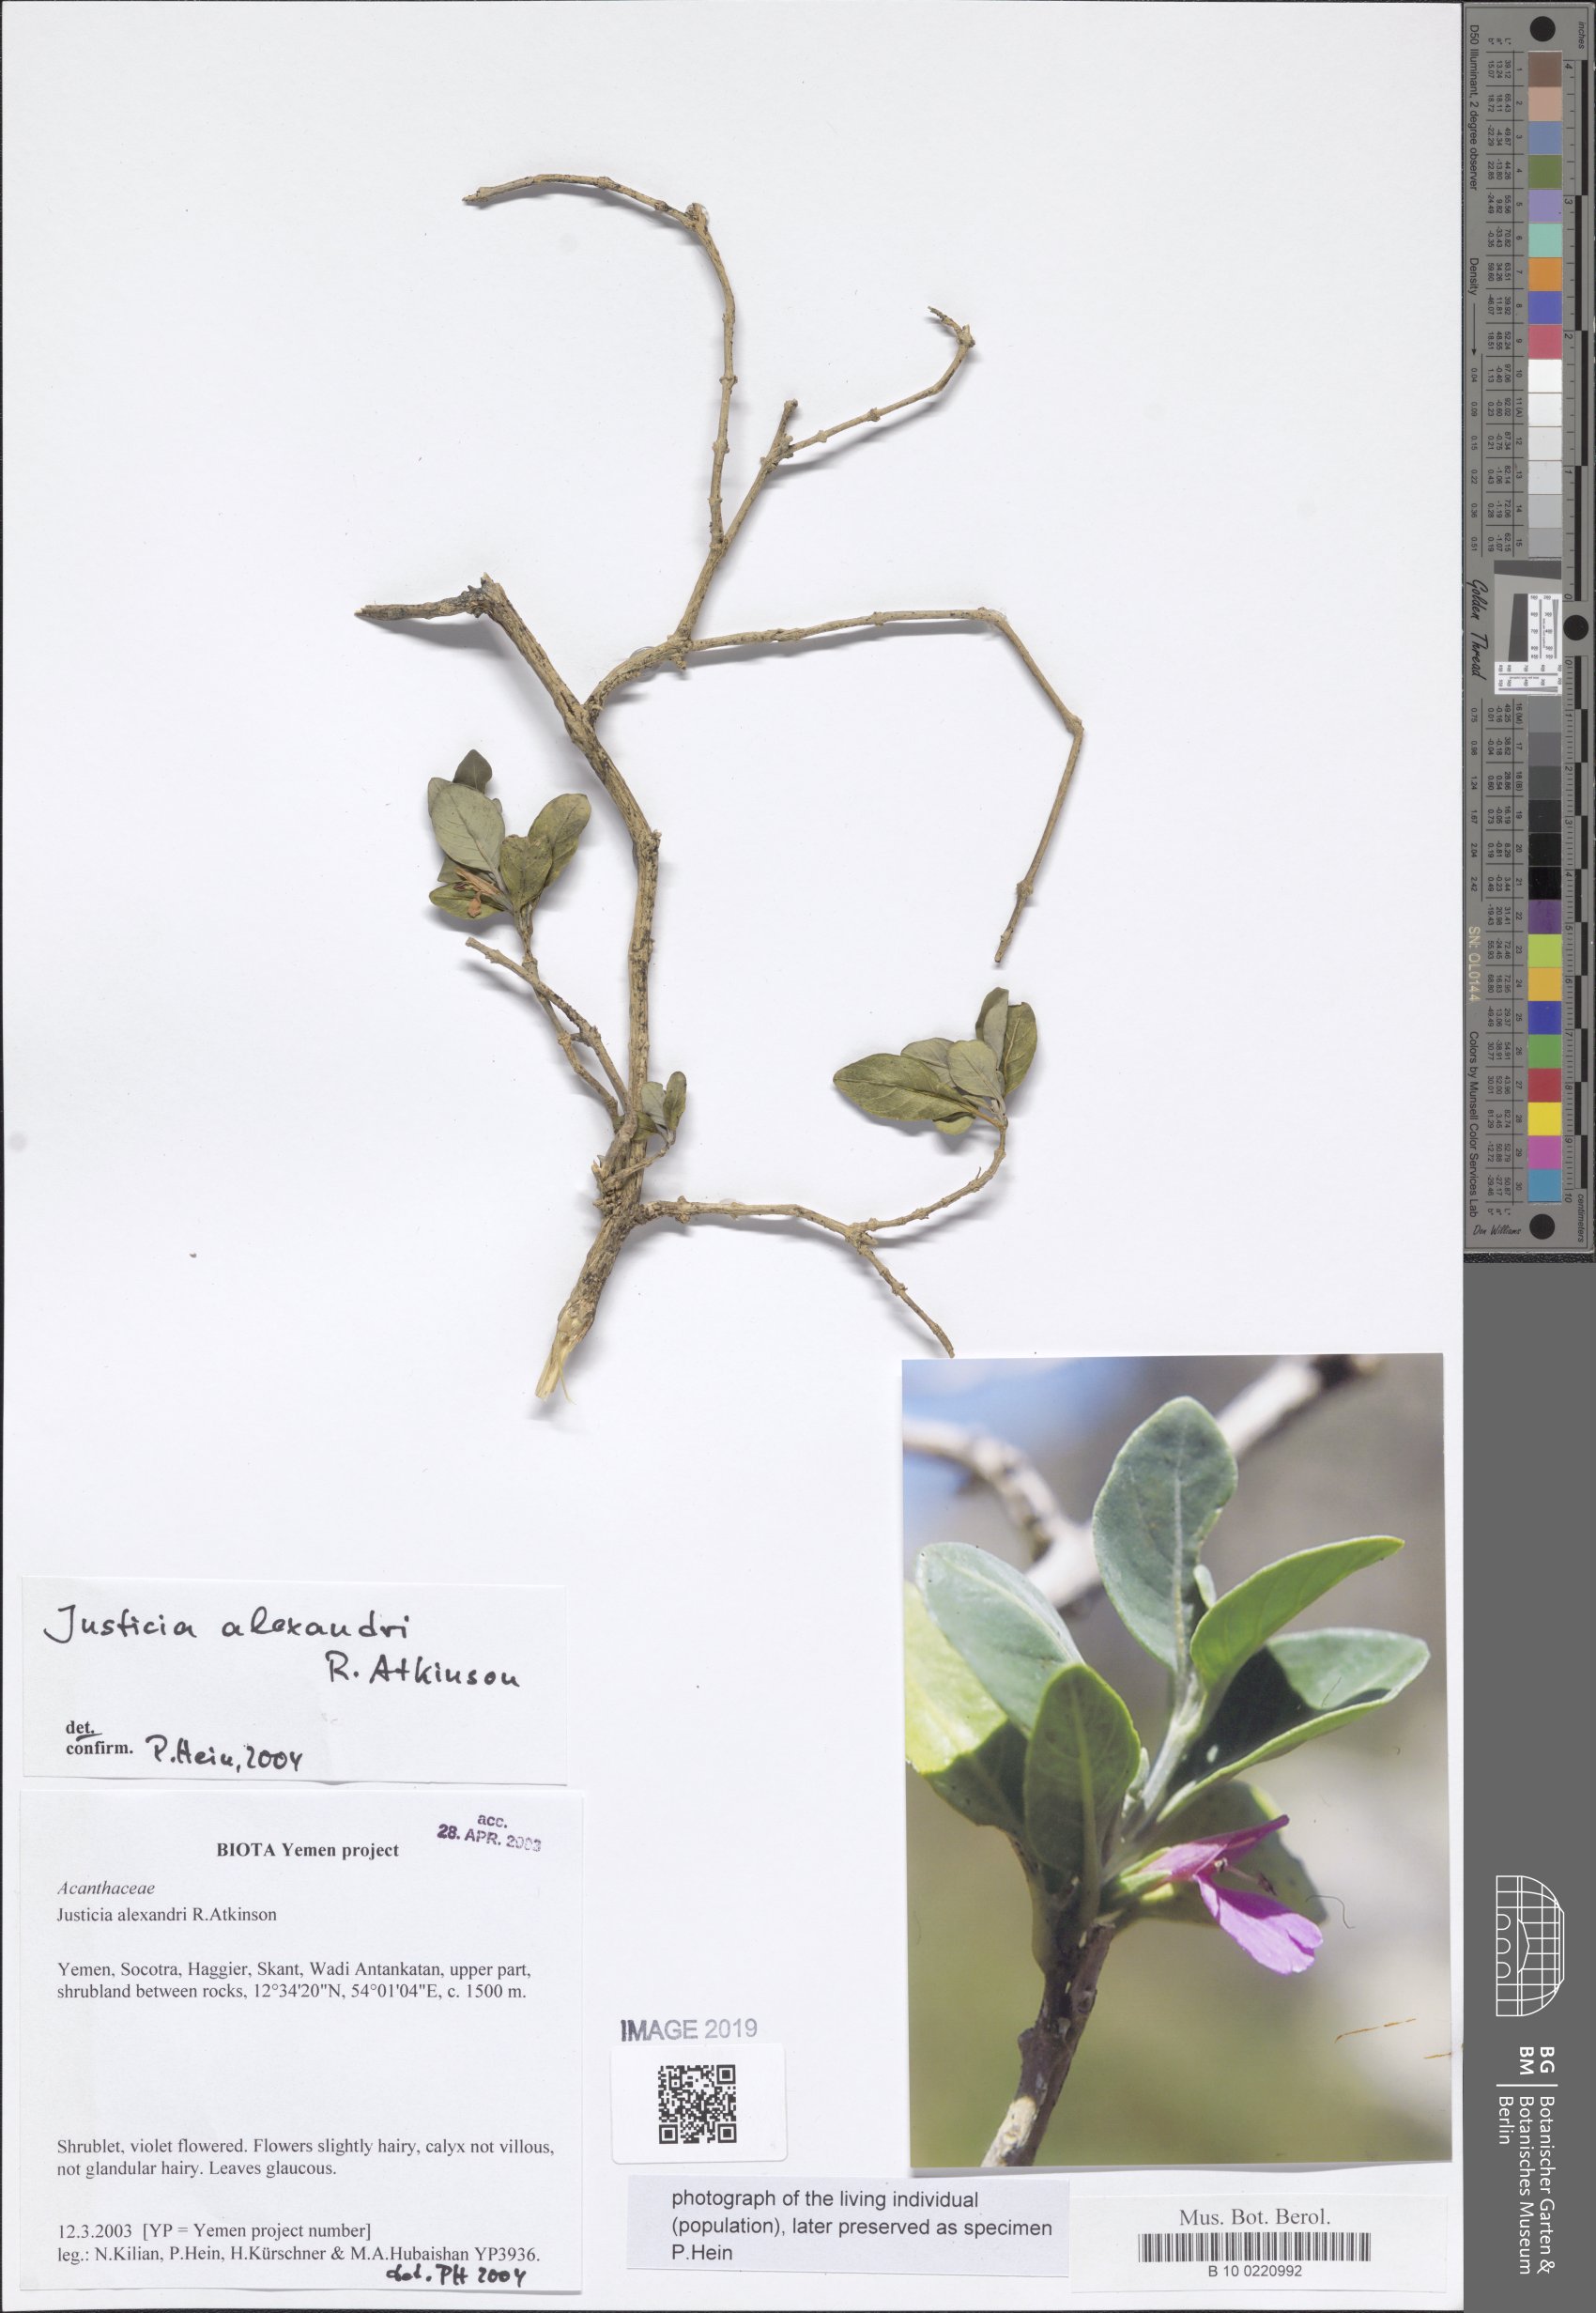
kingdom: Plantae
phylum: Tracheophyta
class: Magnoliopsida
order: Lamiales
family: Acanthaceae
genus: Justicia
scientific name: Justicia alexandri
